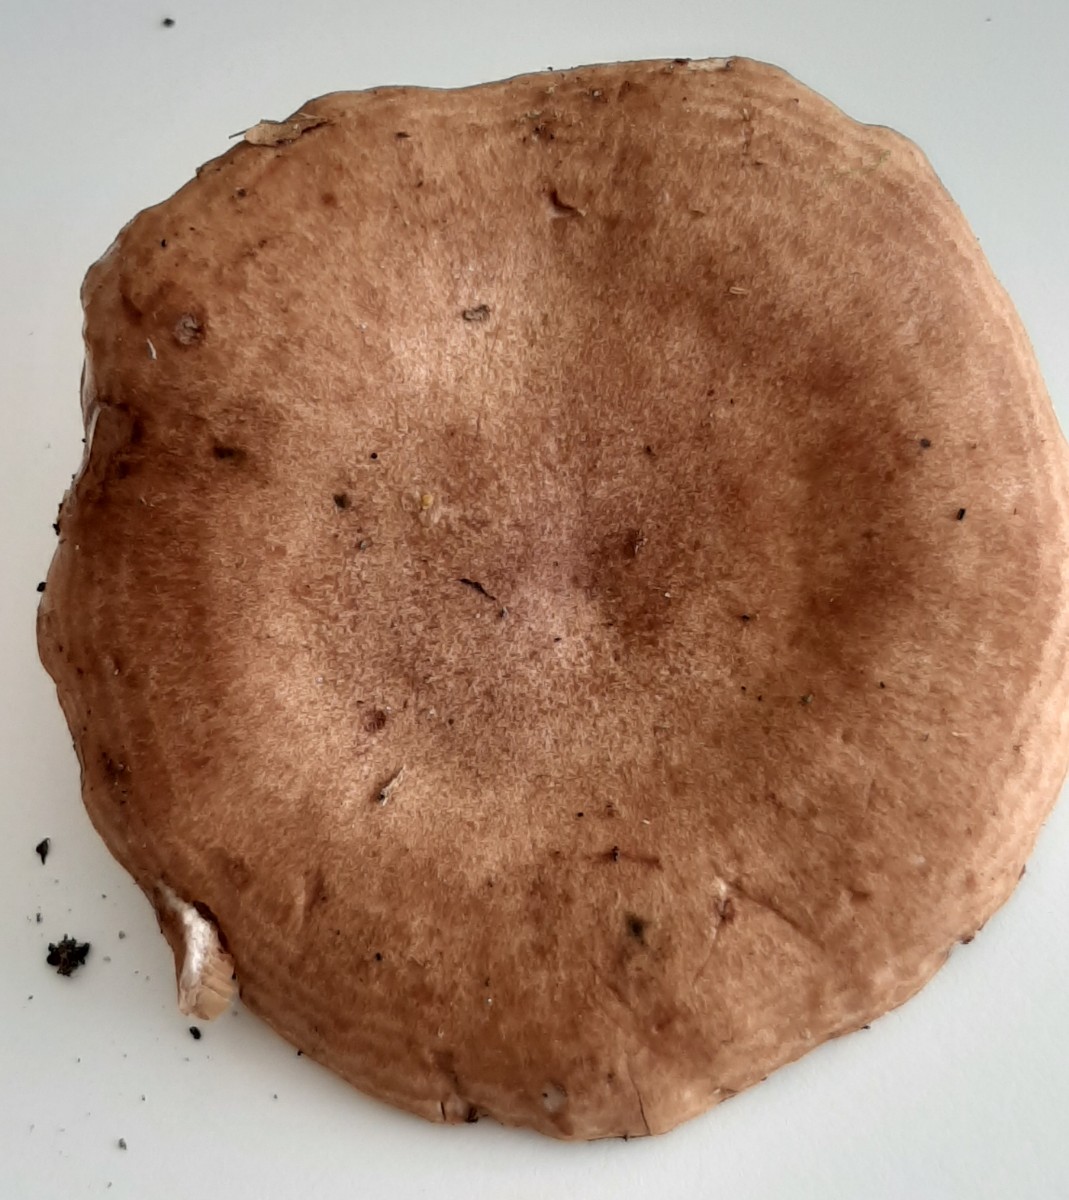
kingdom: Fungi
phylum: Basidiomycota
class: Agaricomycetes
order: Russulales
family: Russulaceae
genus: Lactarius
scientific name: Lactarius quietus
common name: ege-mælkehat
